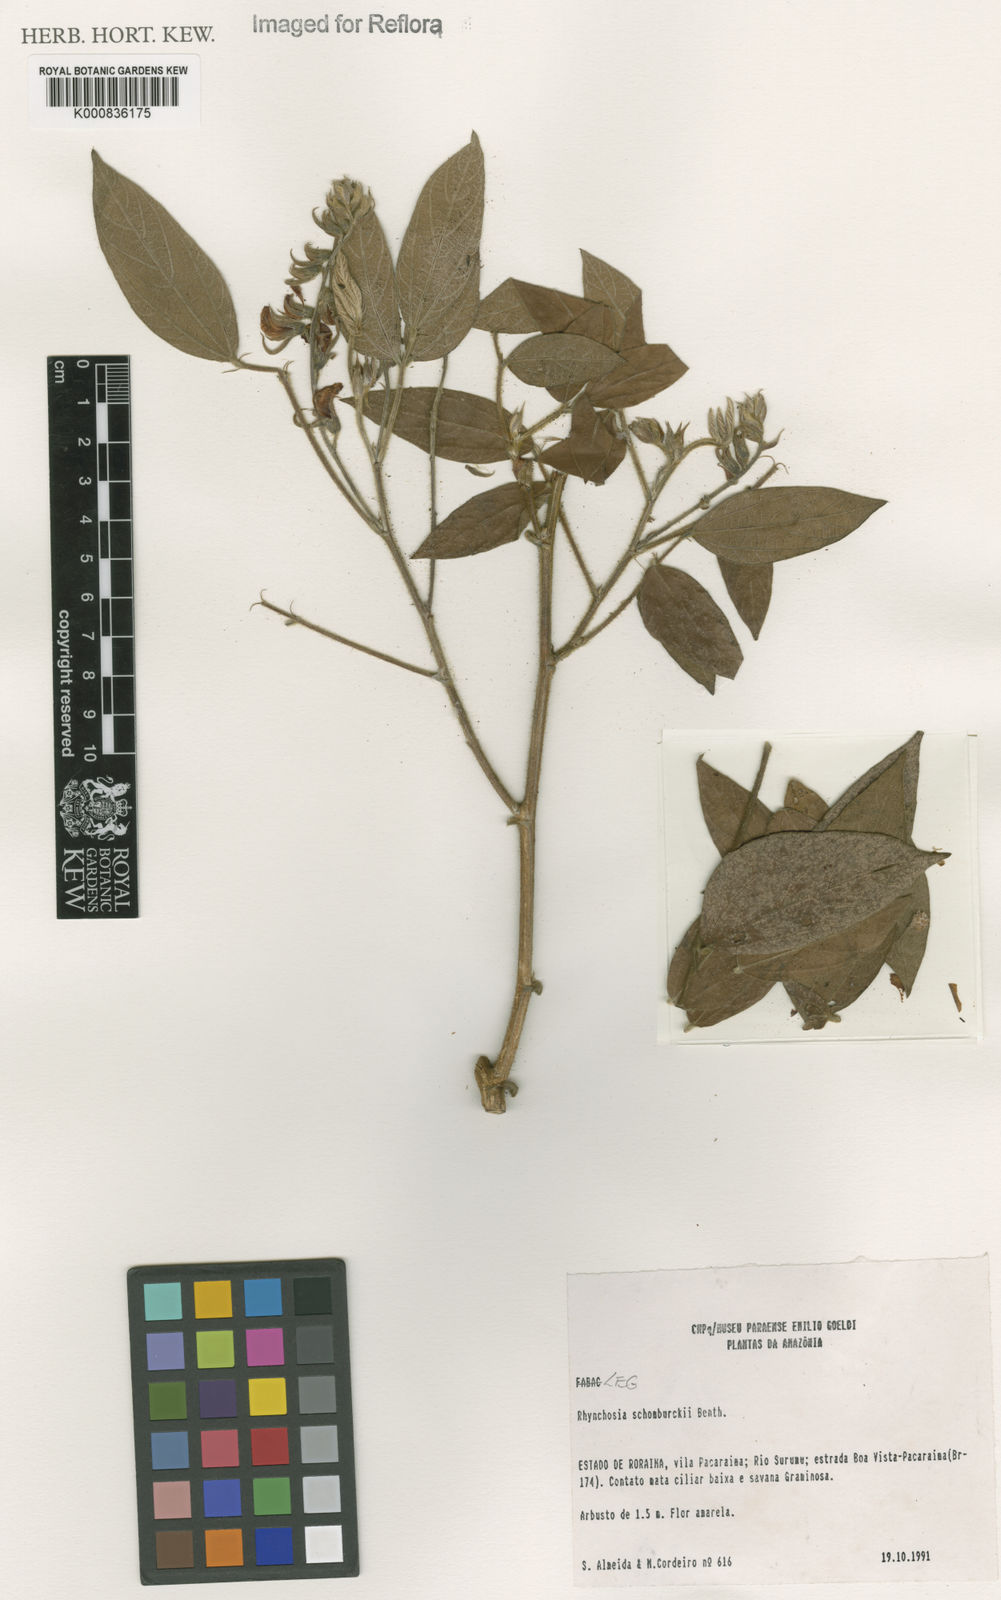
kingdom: Plantae
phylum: Tracheophyta
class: Magnoliopsida
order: Fabales
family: Fabaceae
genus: Rhynchosia
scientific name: Rhynchosia schomburgkii
